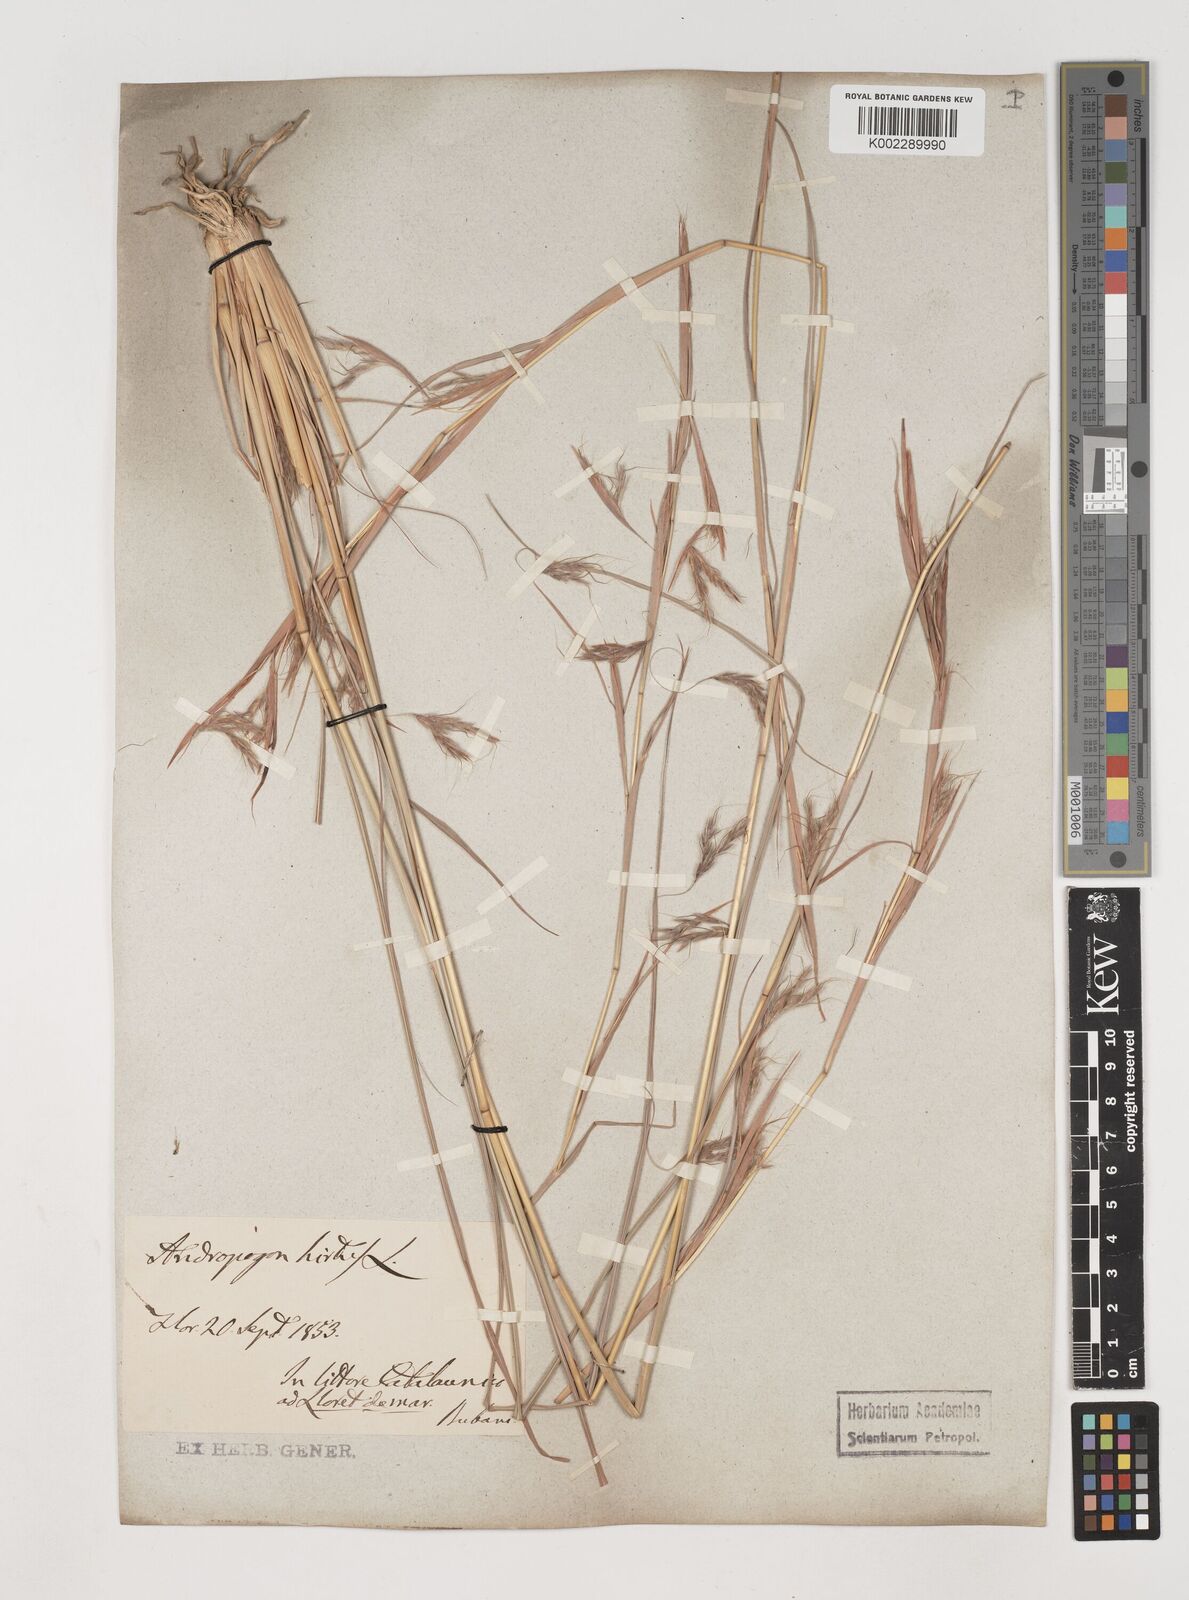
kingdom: Plantae
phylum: Tracheophyta
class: Liliopsida
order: Poales
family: Poaceae
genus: Hyparrhenia
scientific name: Hyparrhenia hirta
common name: Thatching grass
